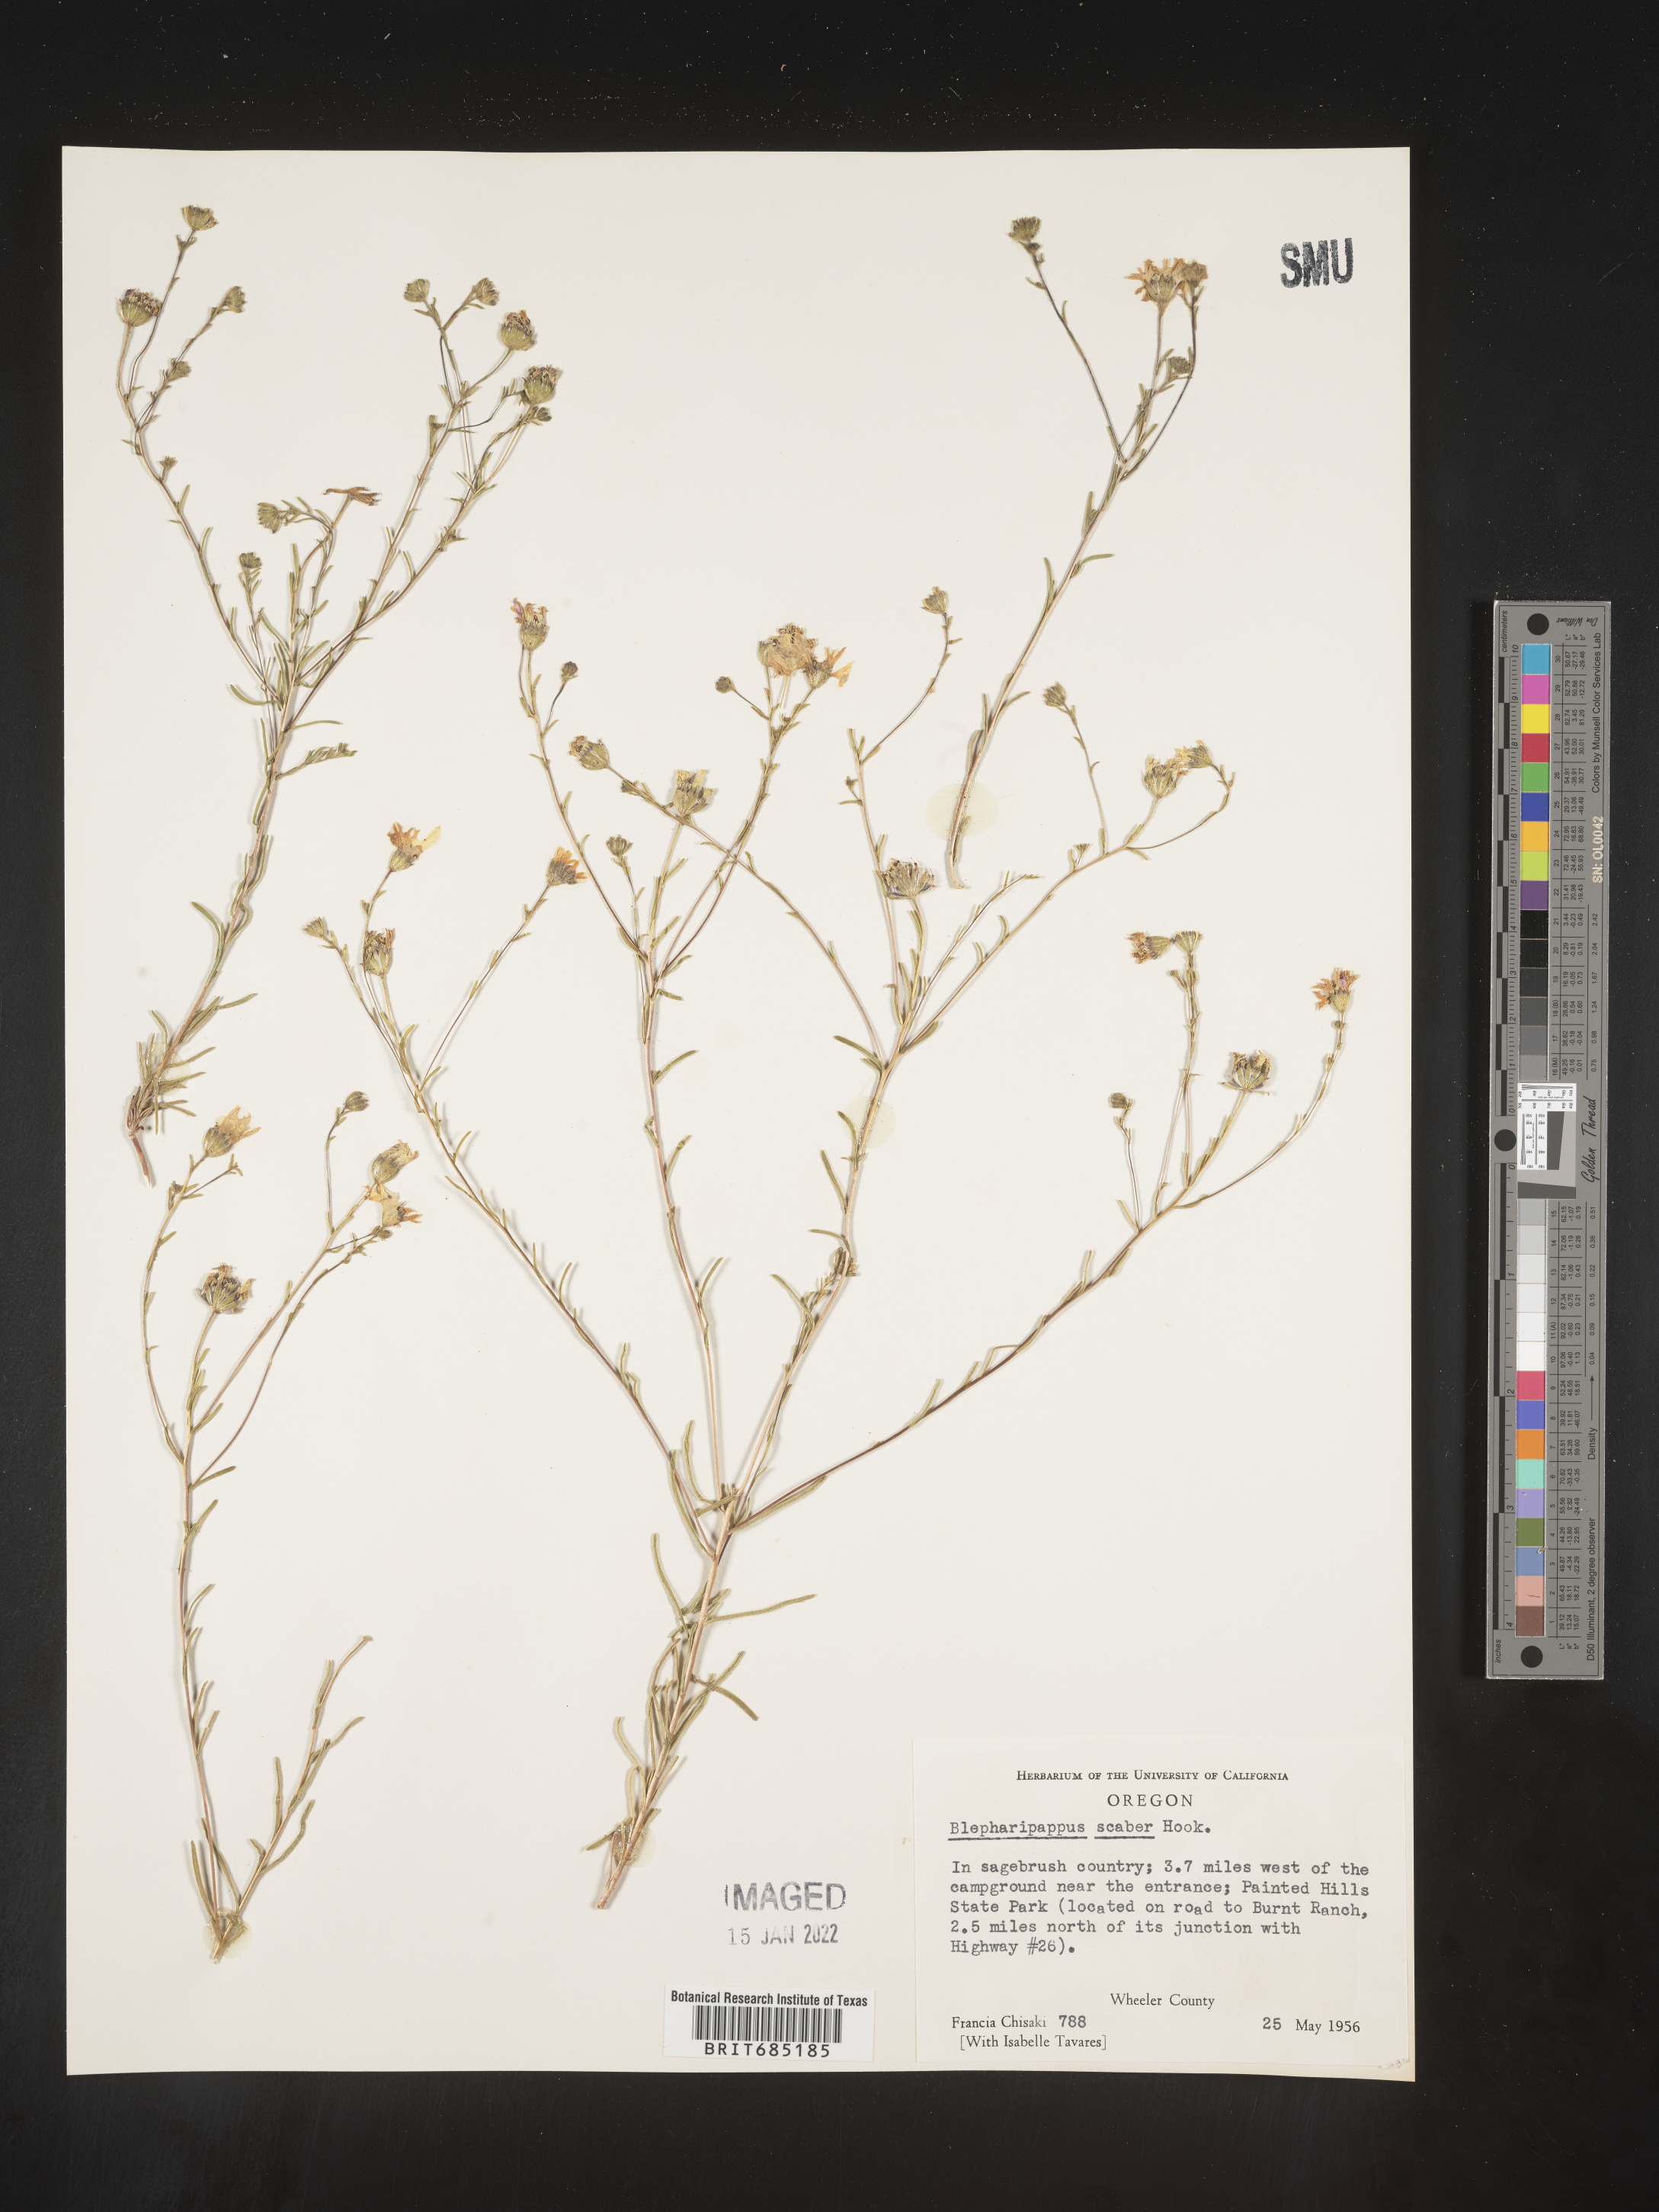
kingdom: Plantae
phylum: Tracheophyta
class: Magnoliopsida
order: Asterales
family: Asteraceae
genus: Blepharipappus
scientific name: Blepharipappus
